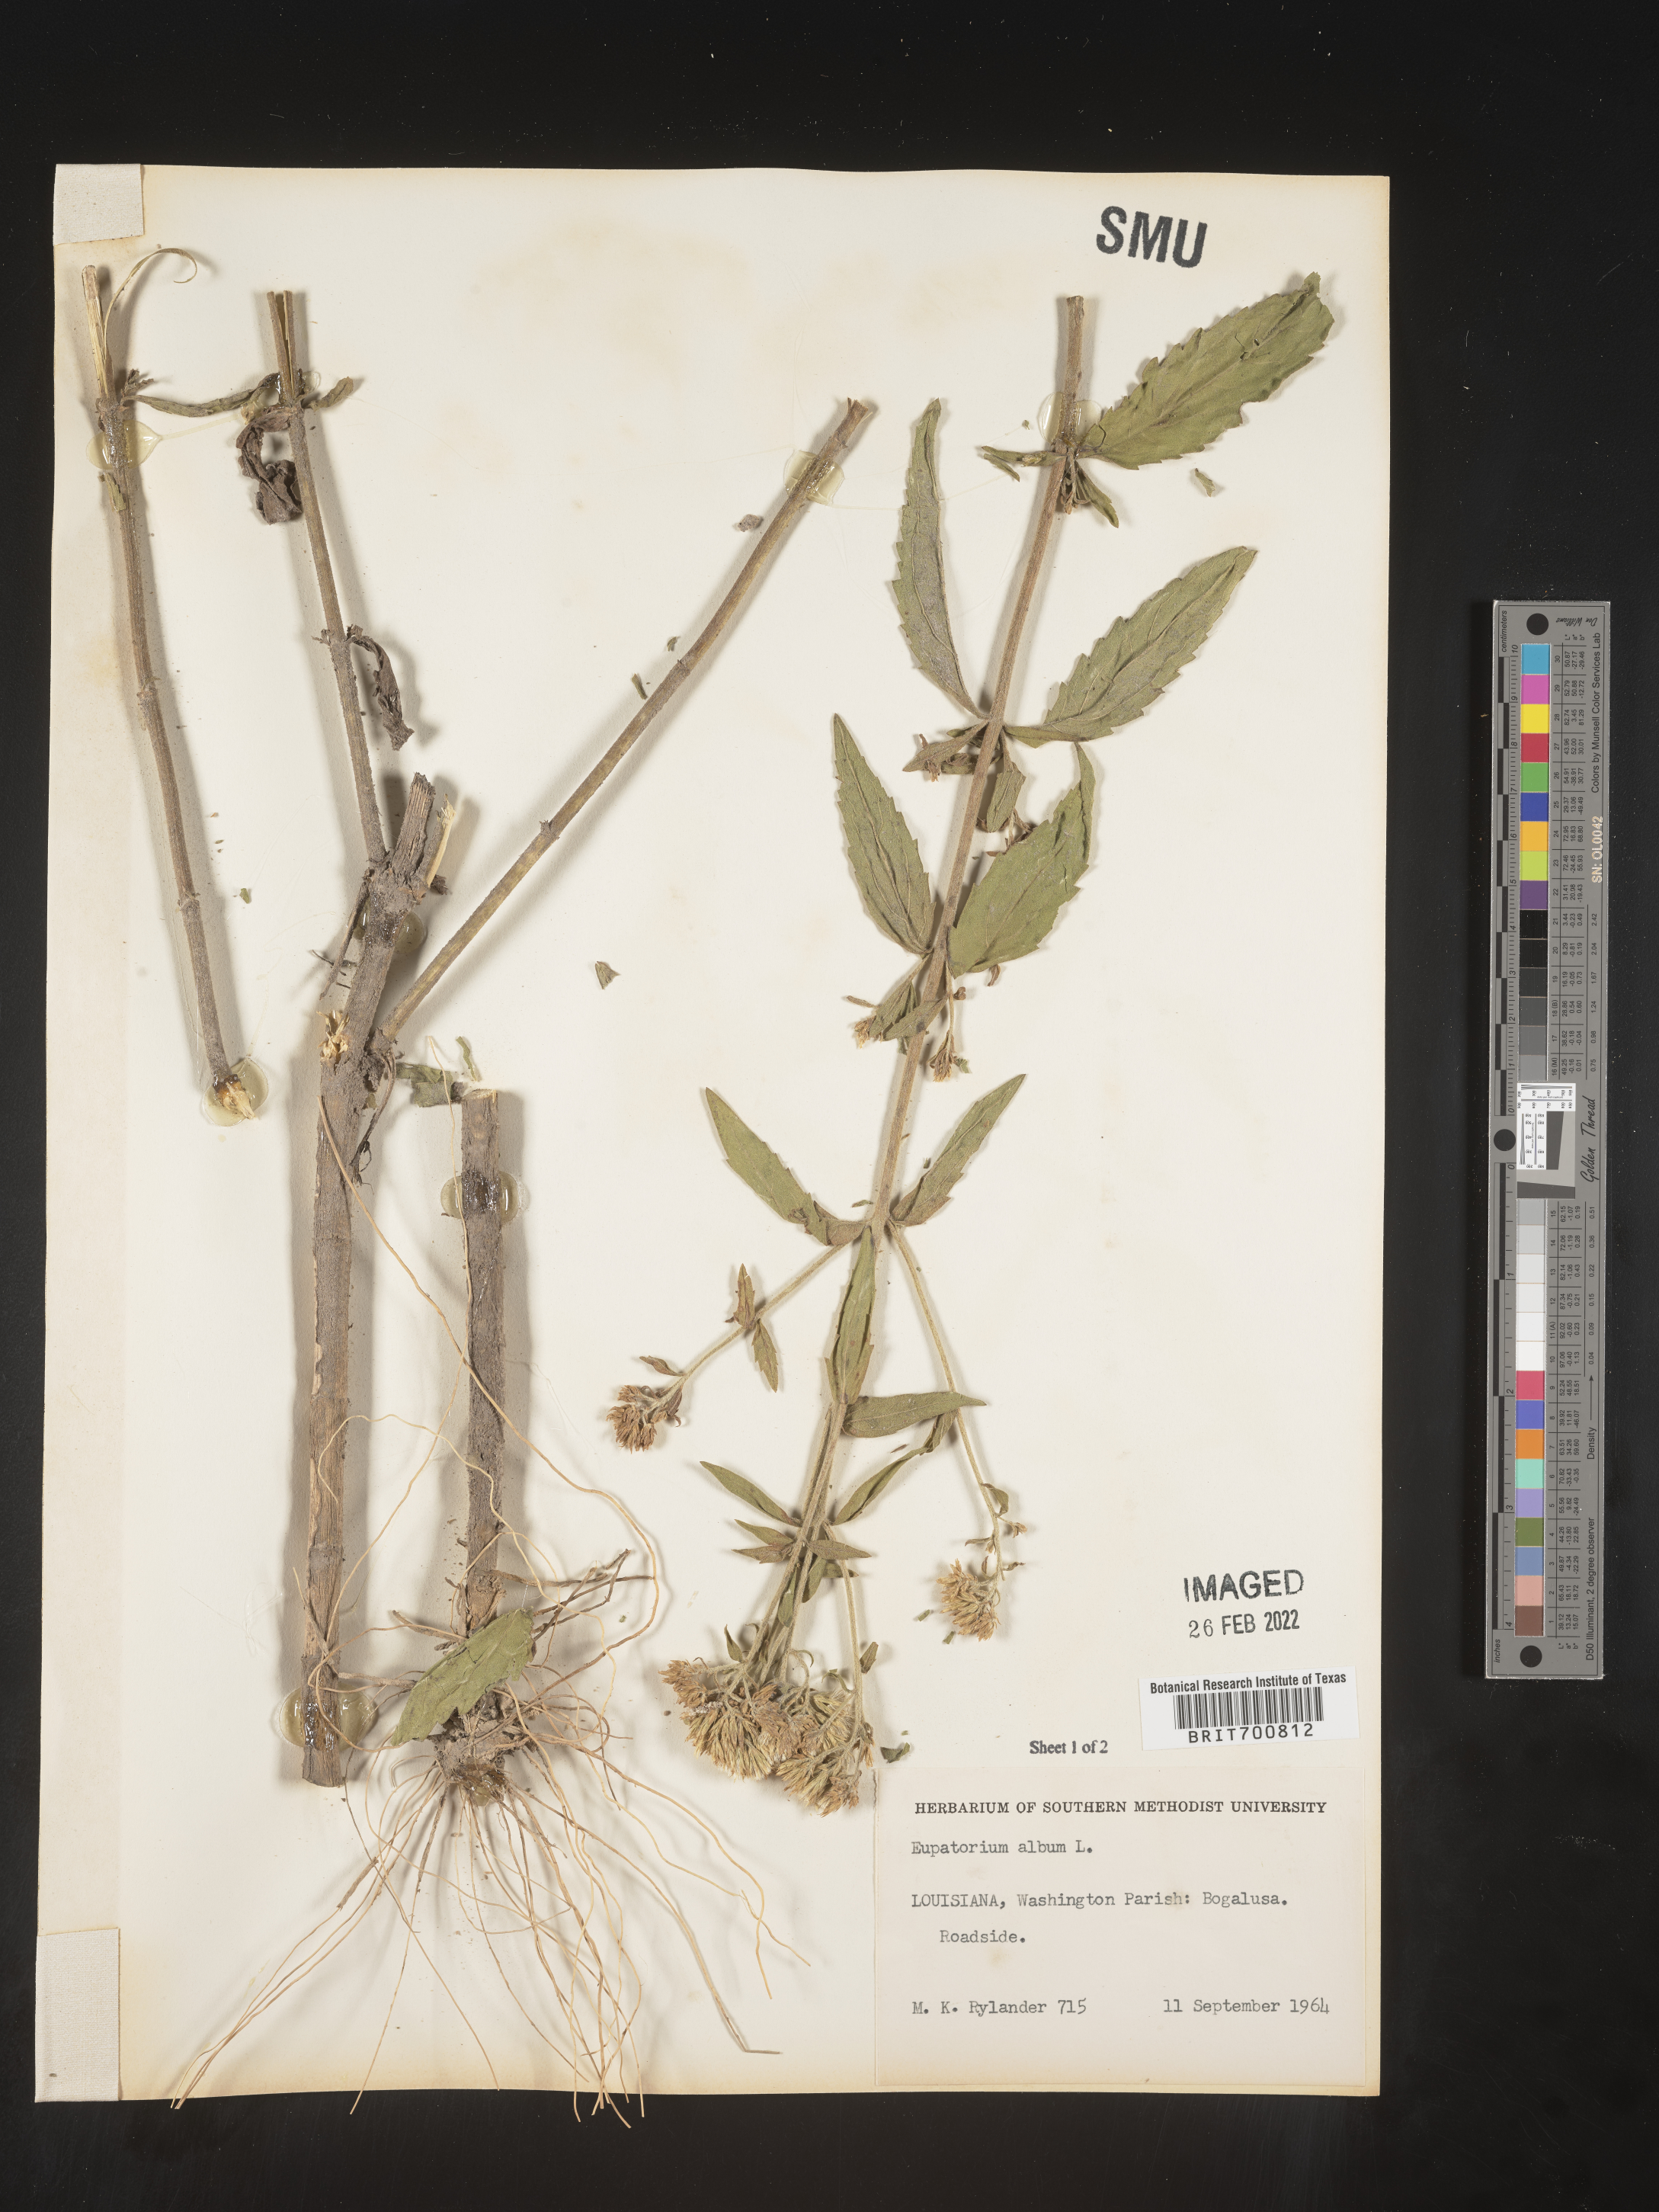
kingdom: Plantae
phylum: Tracheophyta
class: Magnoliopsida
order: Asterales
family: Asteraceae
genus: Eupatorium
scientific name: Eupatorium album
